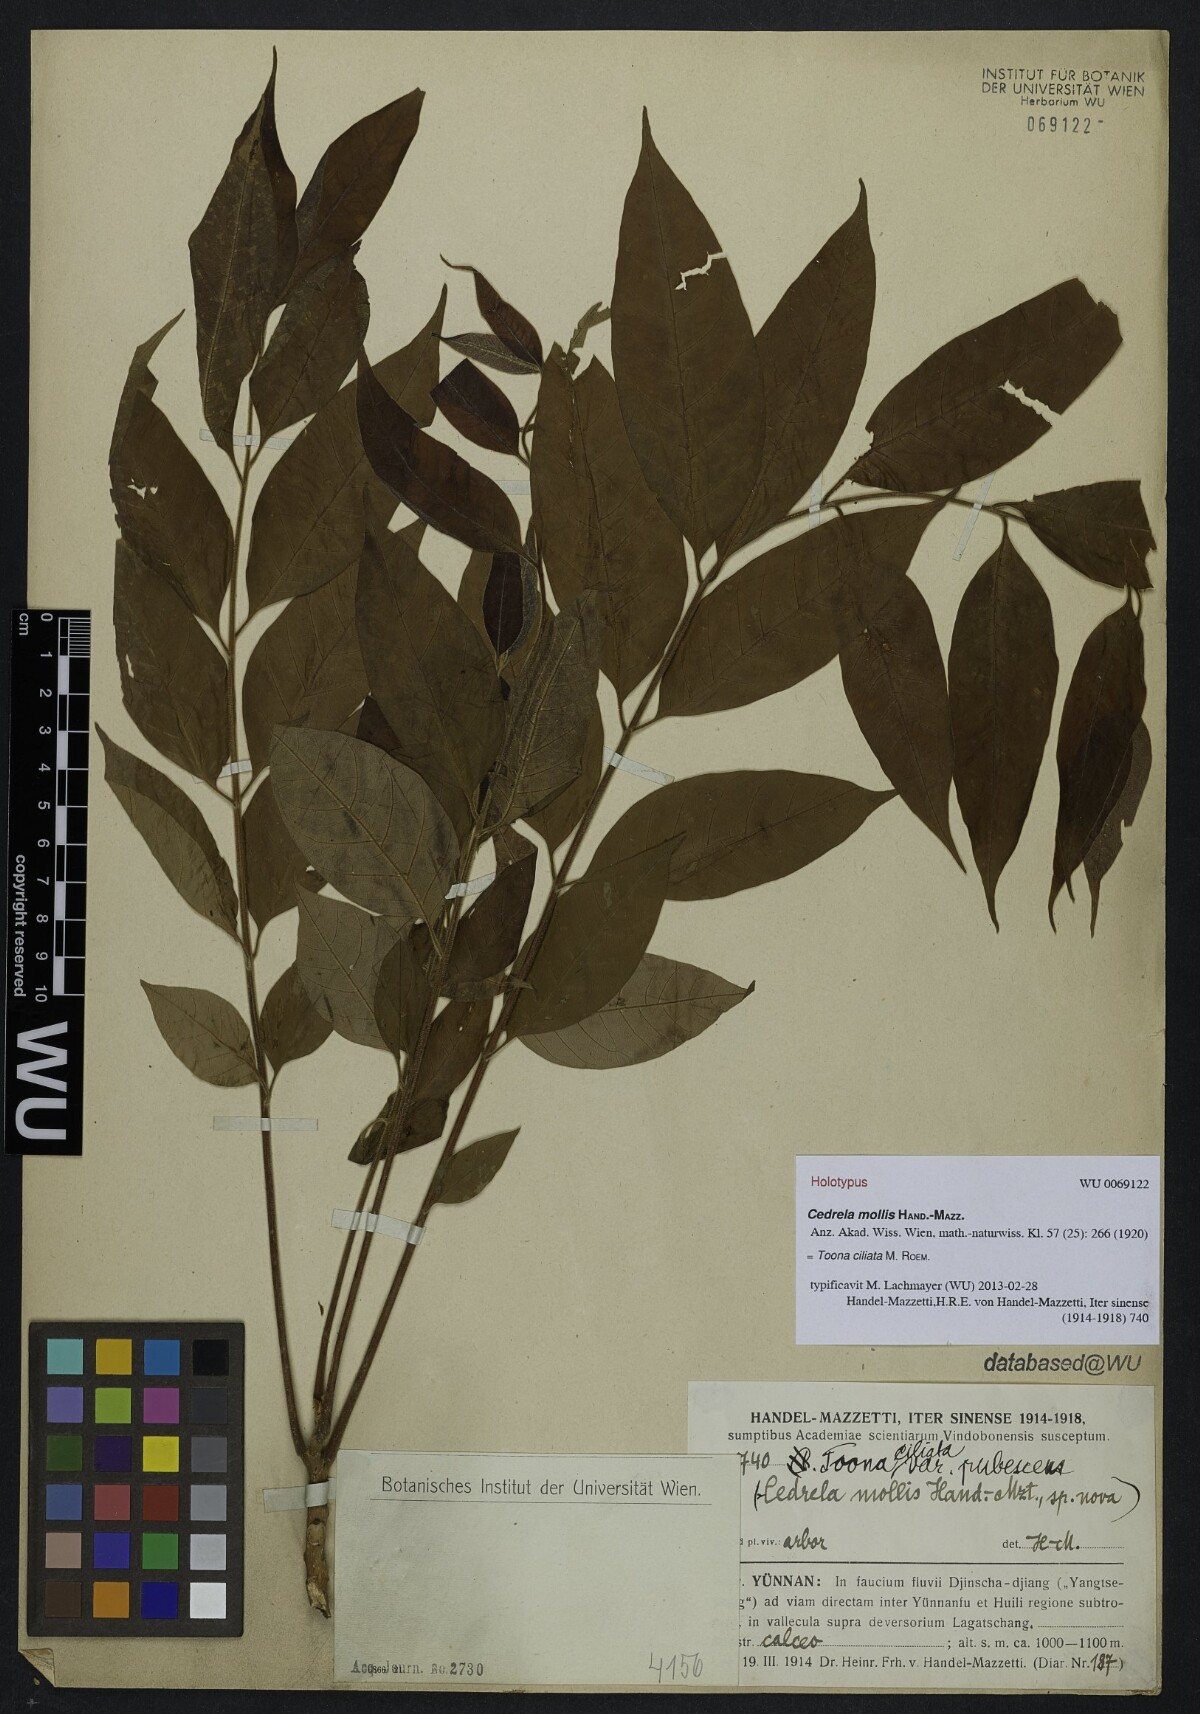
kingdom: Plantae
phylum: Tracheophyta
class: Magnoliopsida
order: Sapindales
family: Meliaceae
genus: Toona
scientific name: Toona ciliata
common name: Australian redcedar
